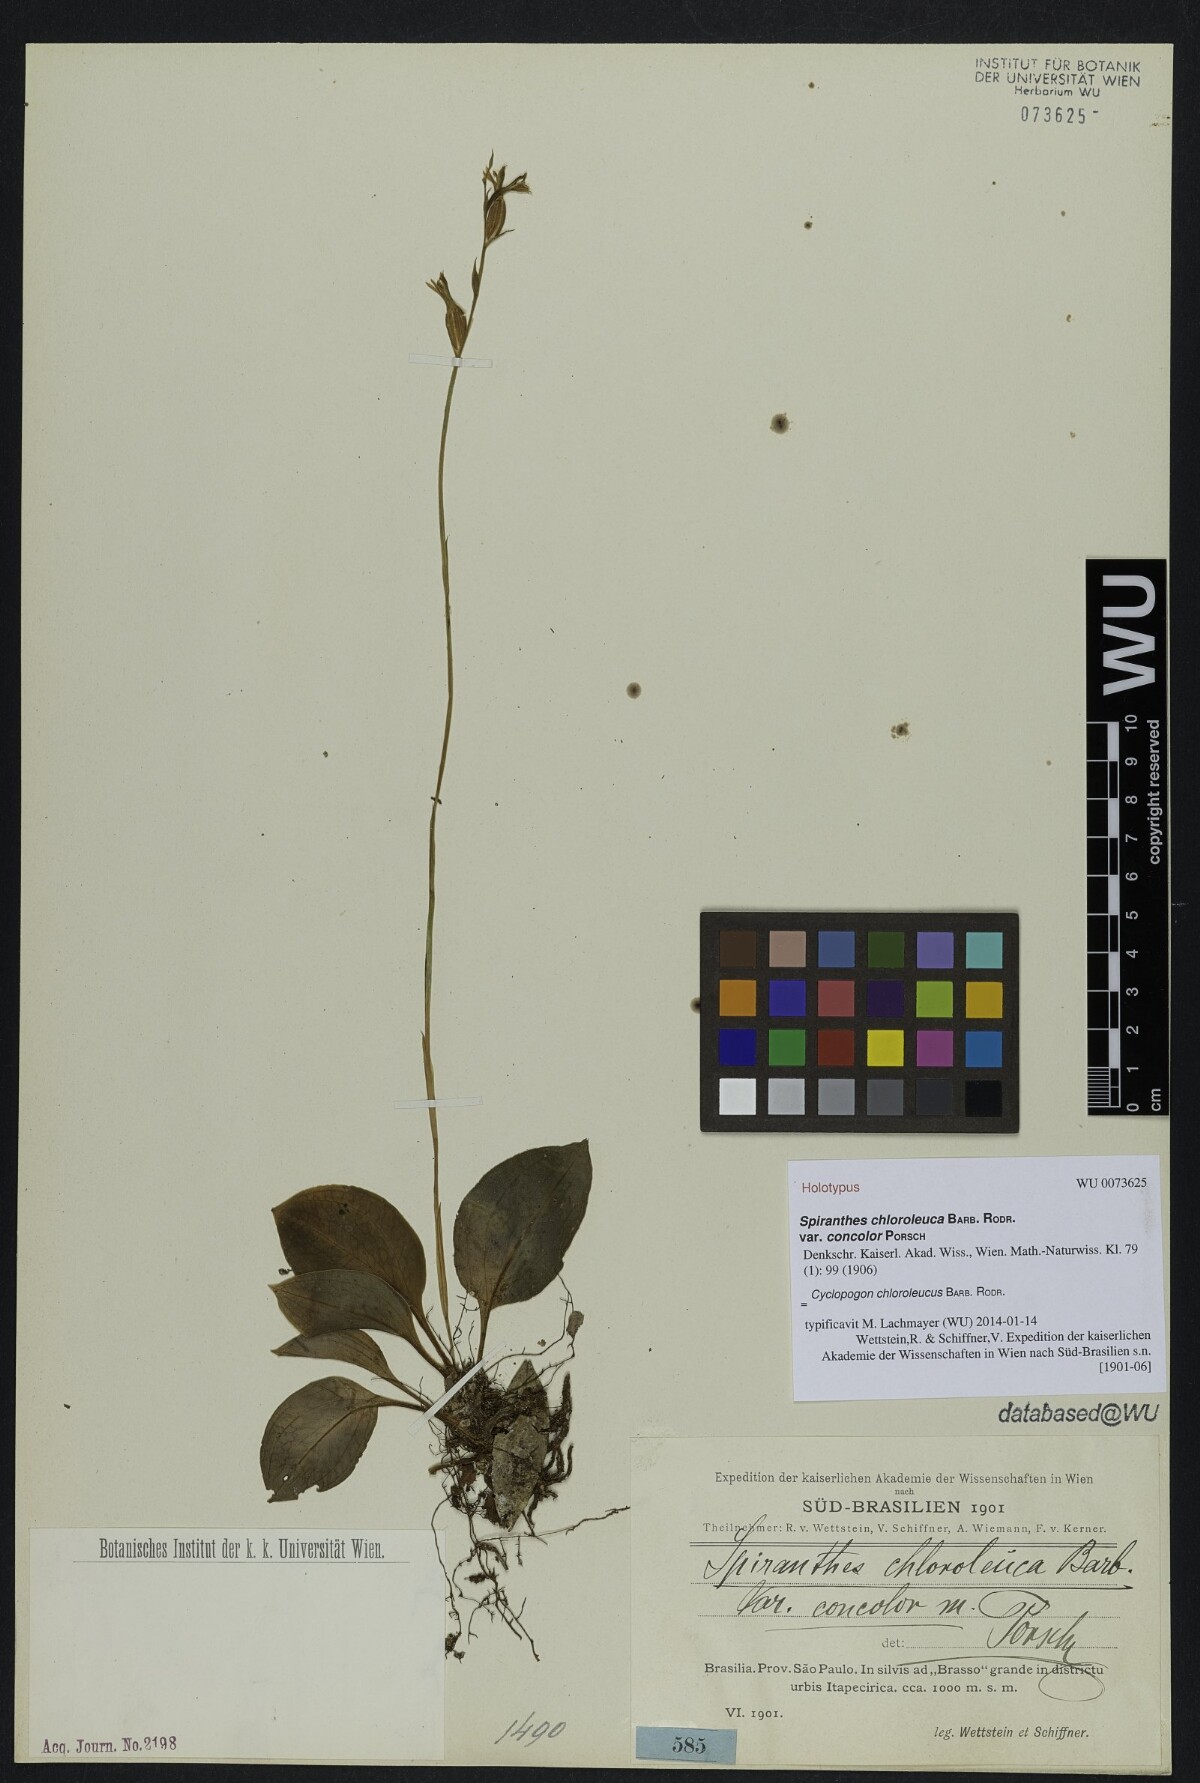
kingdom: Plantae
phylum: Tracheophyta
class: Liliopsida
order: Asparagales
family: Orchidaceae
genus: Cyclopogon
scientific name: Cyclopogon chloroleucus
